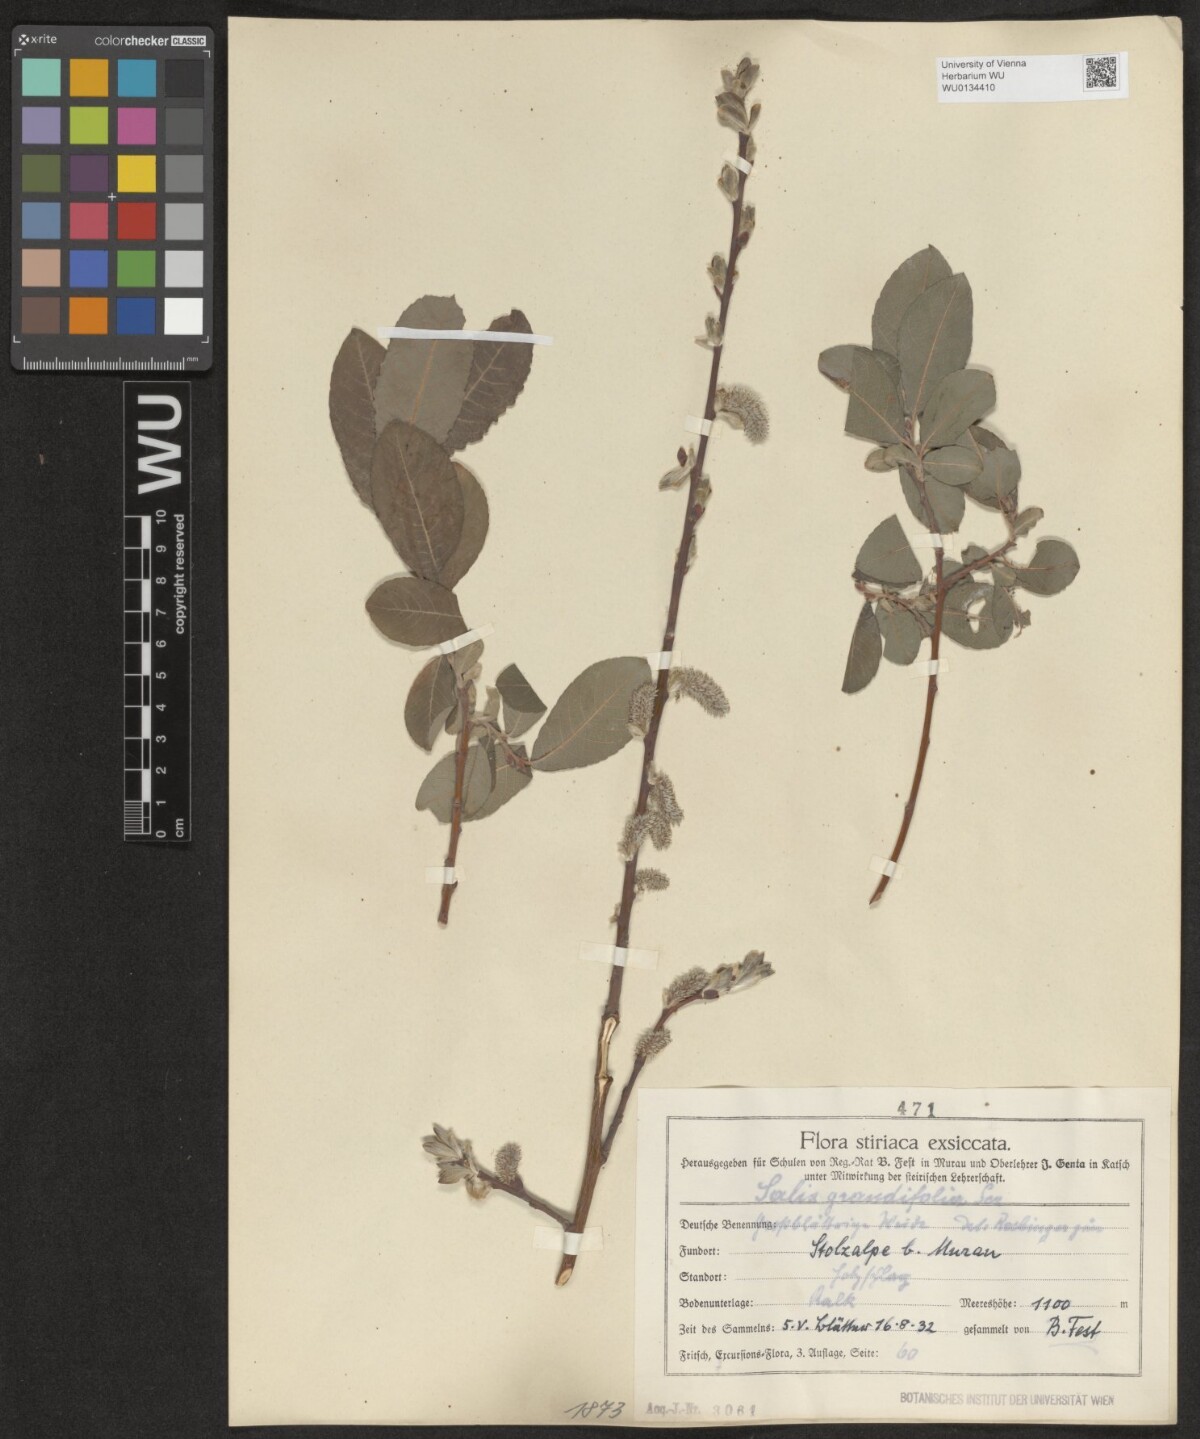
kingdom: Plantae
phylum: Tracheophyta
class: Magnoliopsida
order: Malpighiales
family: Salicaceae
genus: Salix
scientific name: Salix appendiculata
